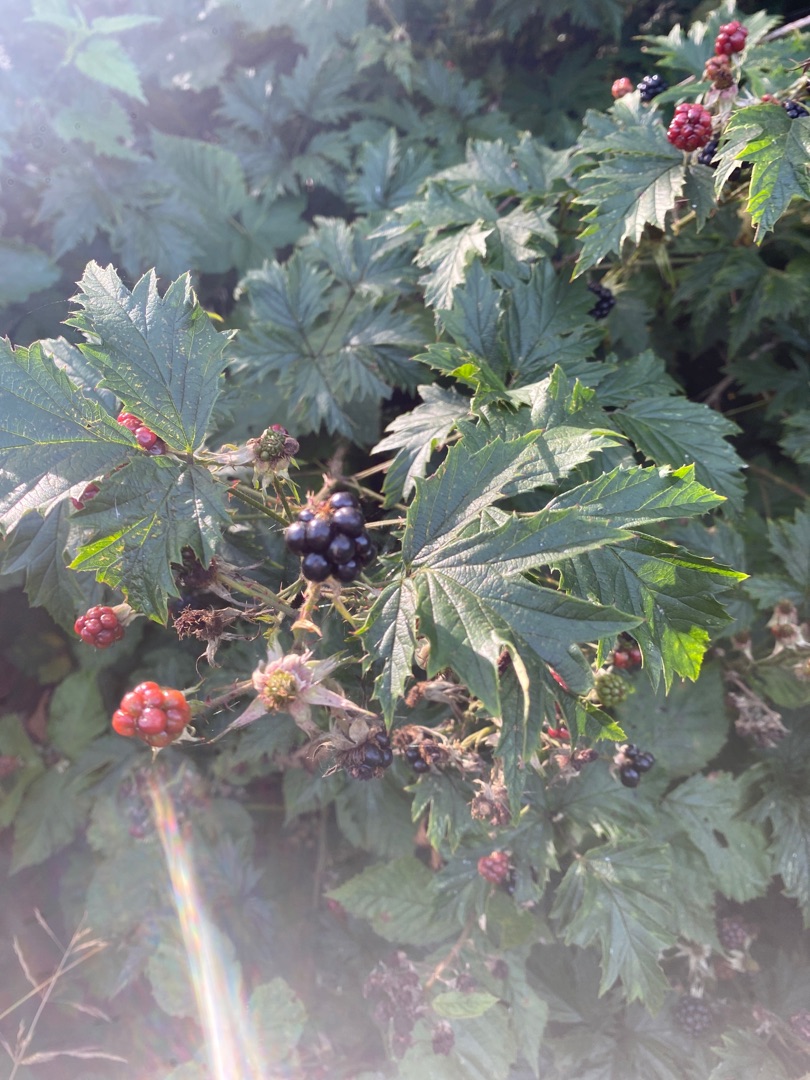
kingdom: Plantae
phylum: Tracheophyta
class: Magnoliopsida
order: Rosales
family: Rosaceae
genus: Rubus
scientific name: Rubus laciniatus
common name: Fliget brombær
